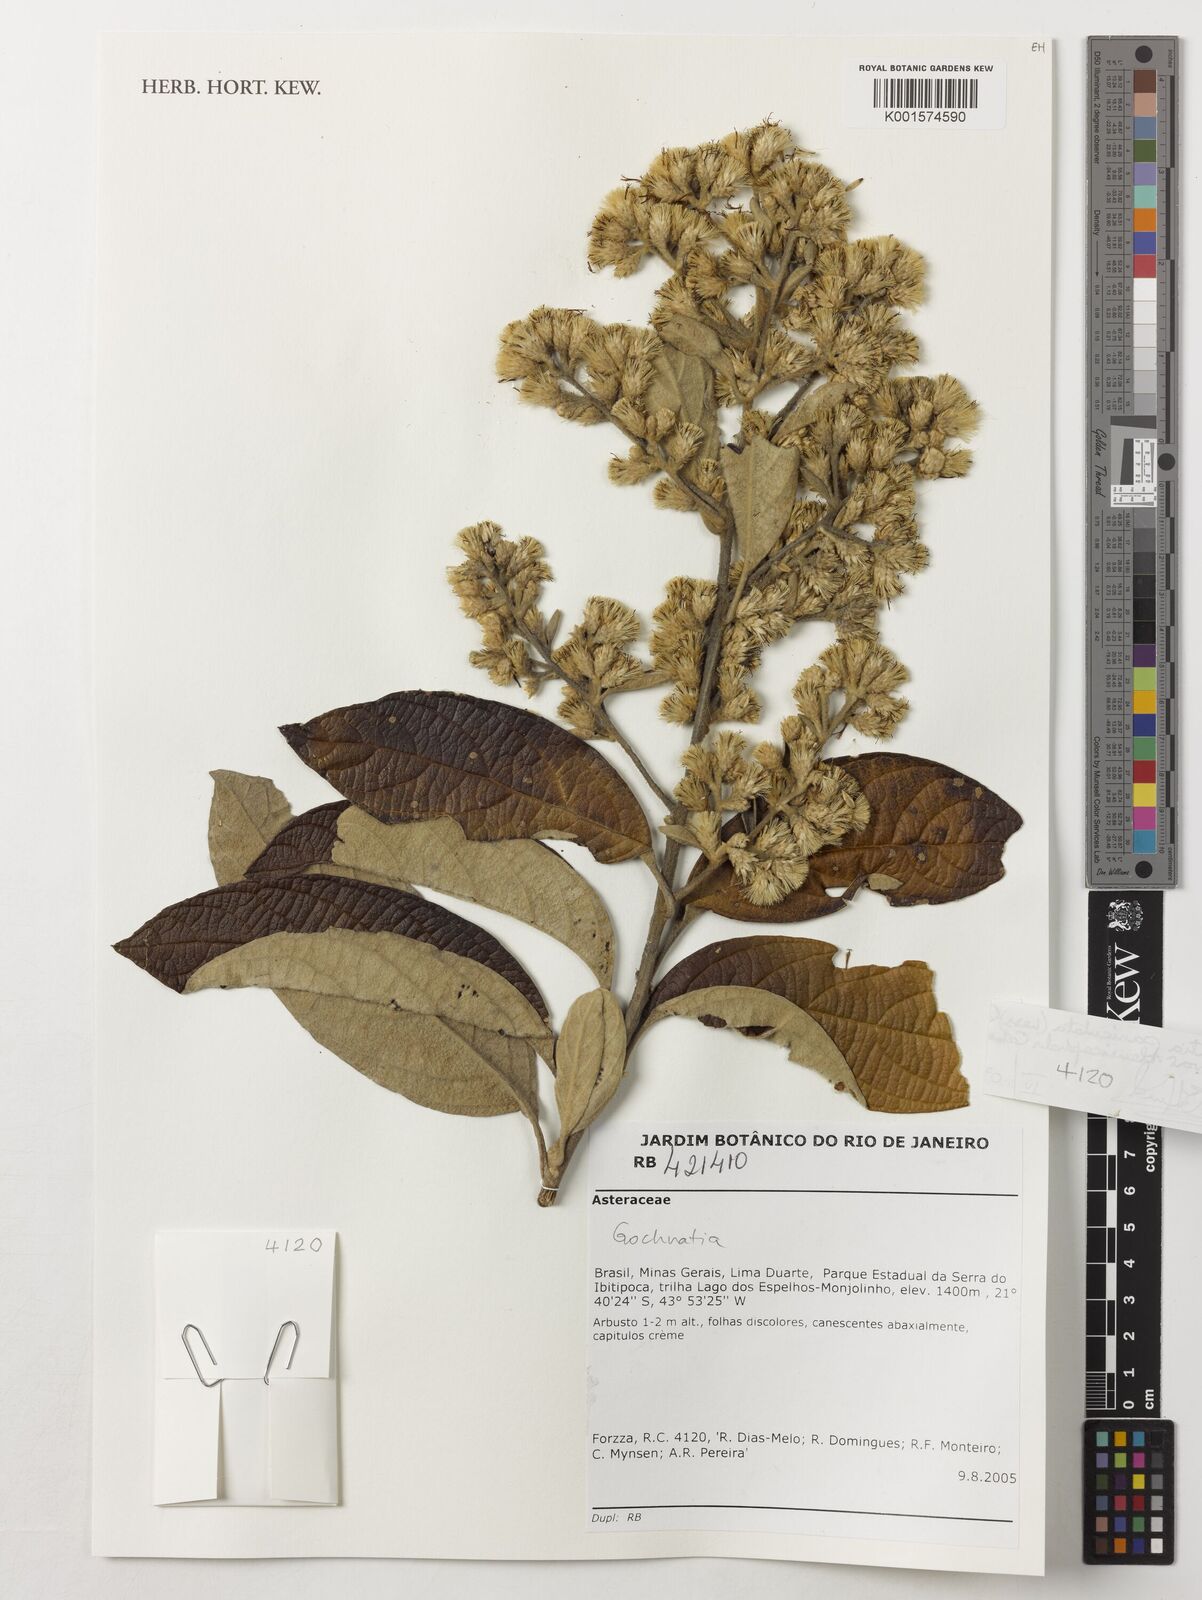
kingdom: Plantae
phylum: Tracheophyta
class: Magnoliopsida
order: Asterales
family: Asteraceae
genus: Moquiniastrum
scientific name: Moquiniastrum densicephalum
